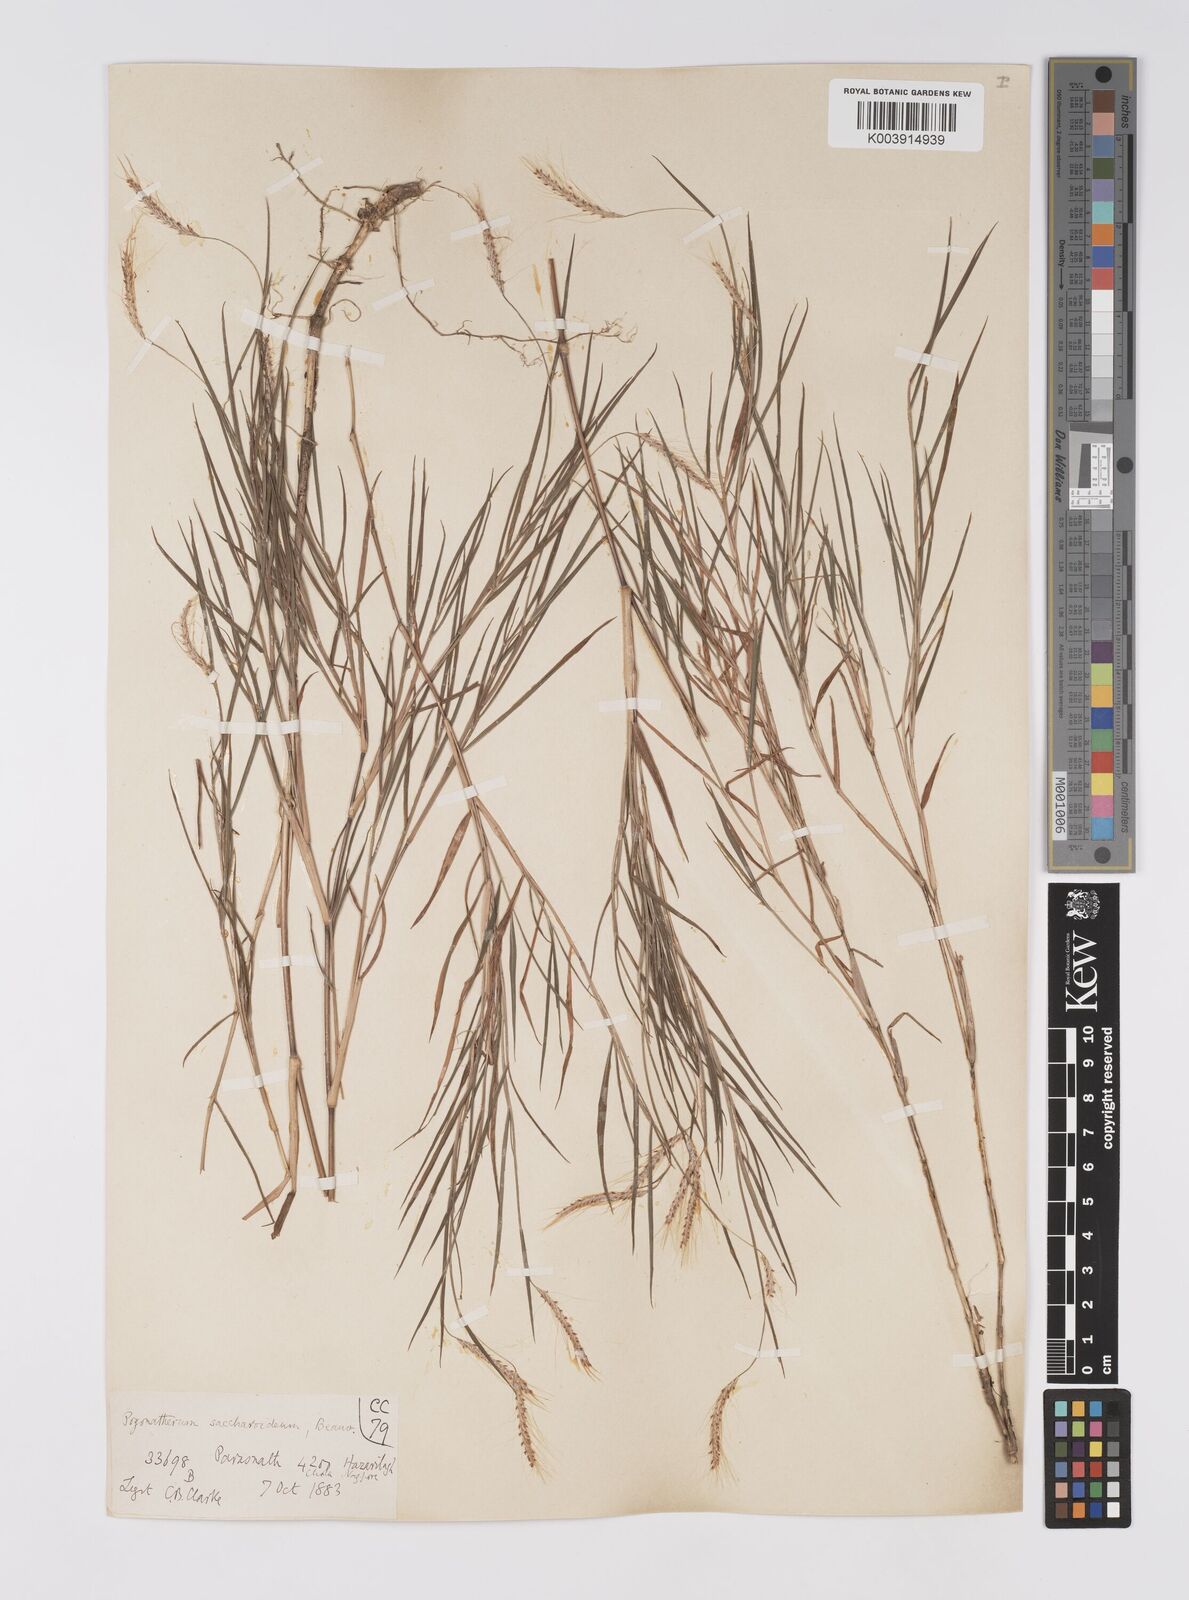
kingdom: Plantae
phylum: Tracheophyta
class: Liliopsida
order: Poales
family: Poaceae
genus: Pogonatherum
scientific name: Pogonatherum paniceum
